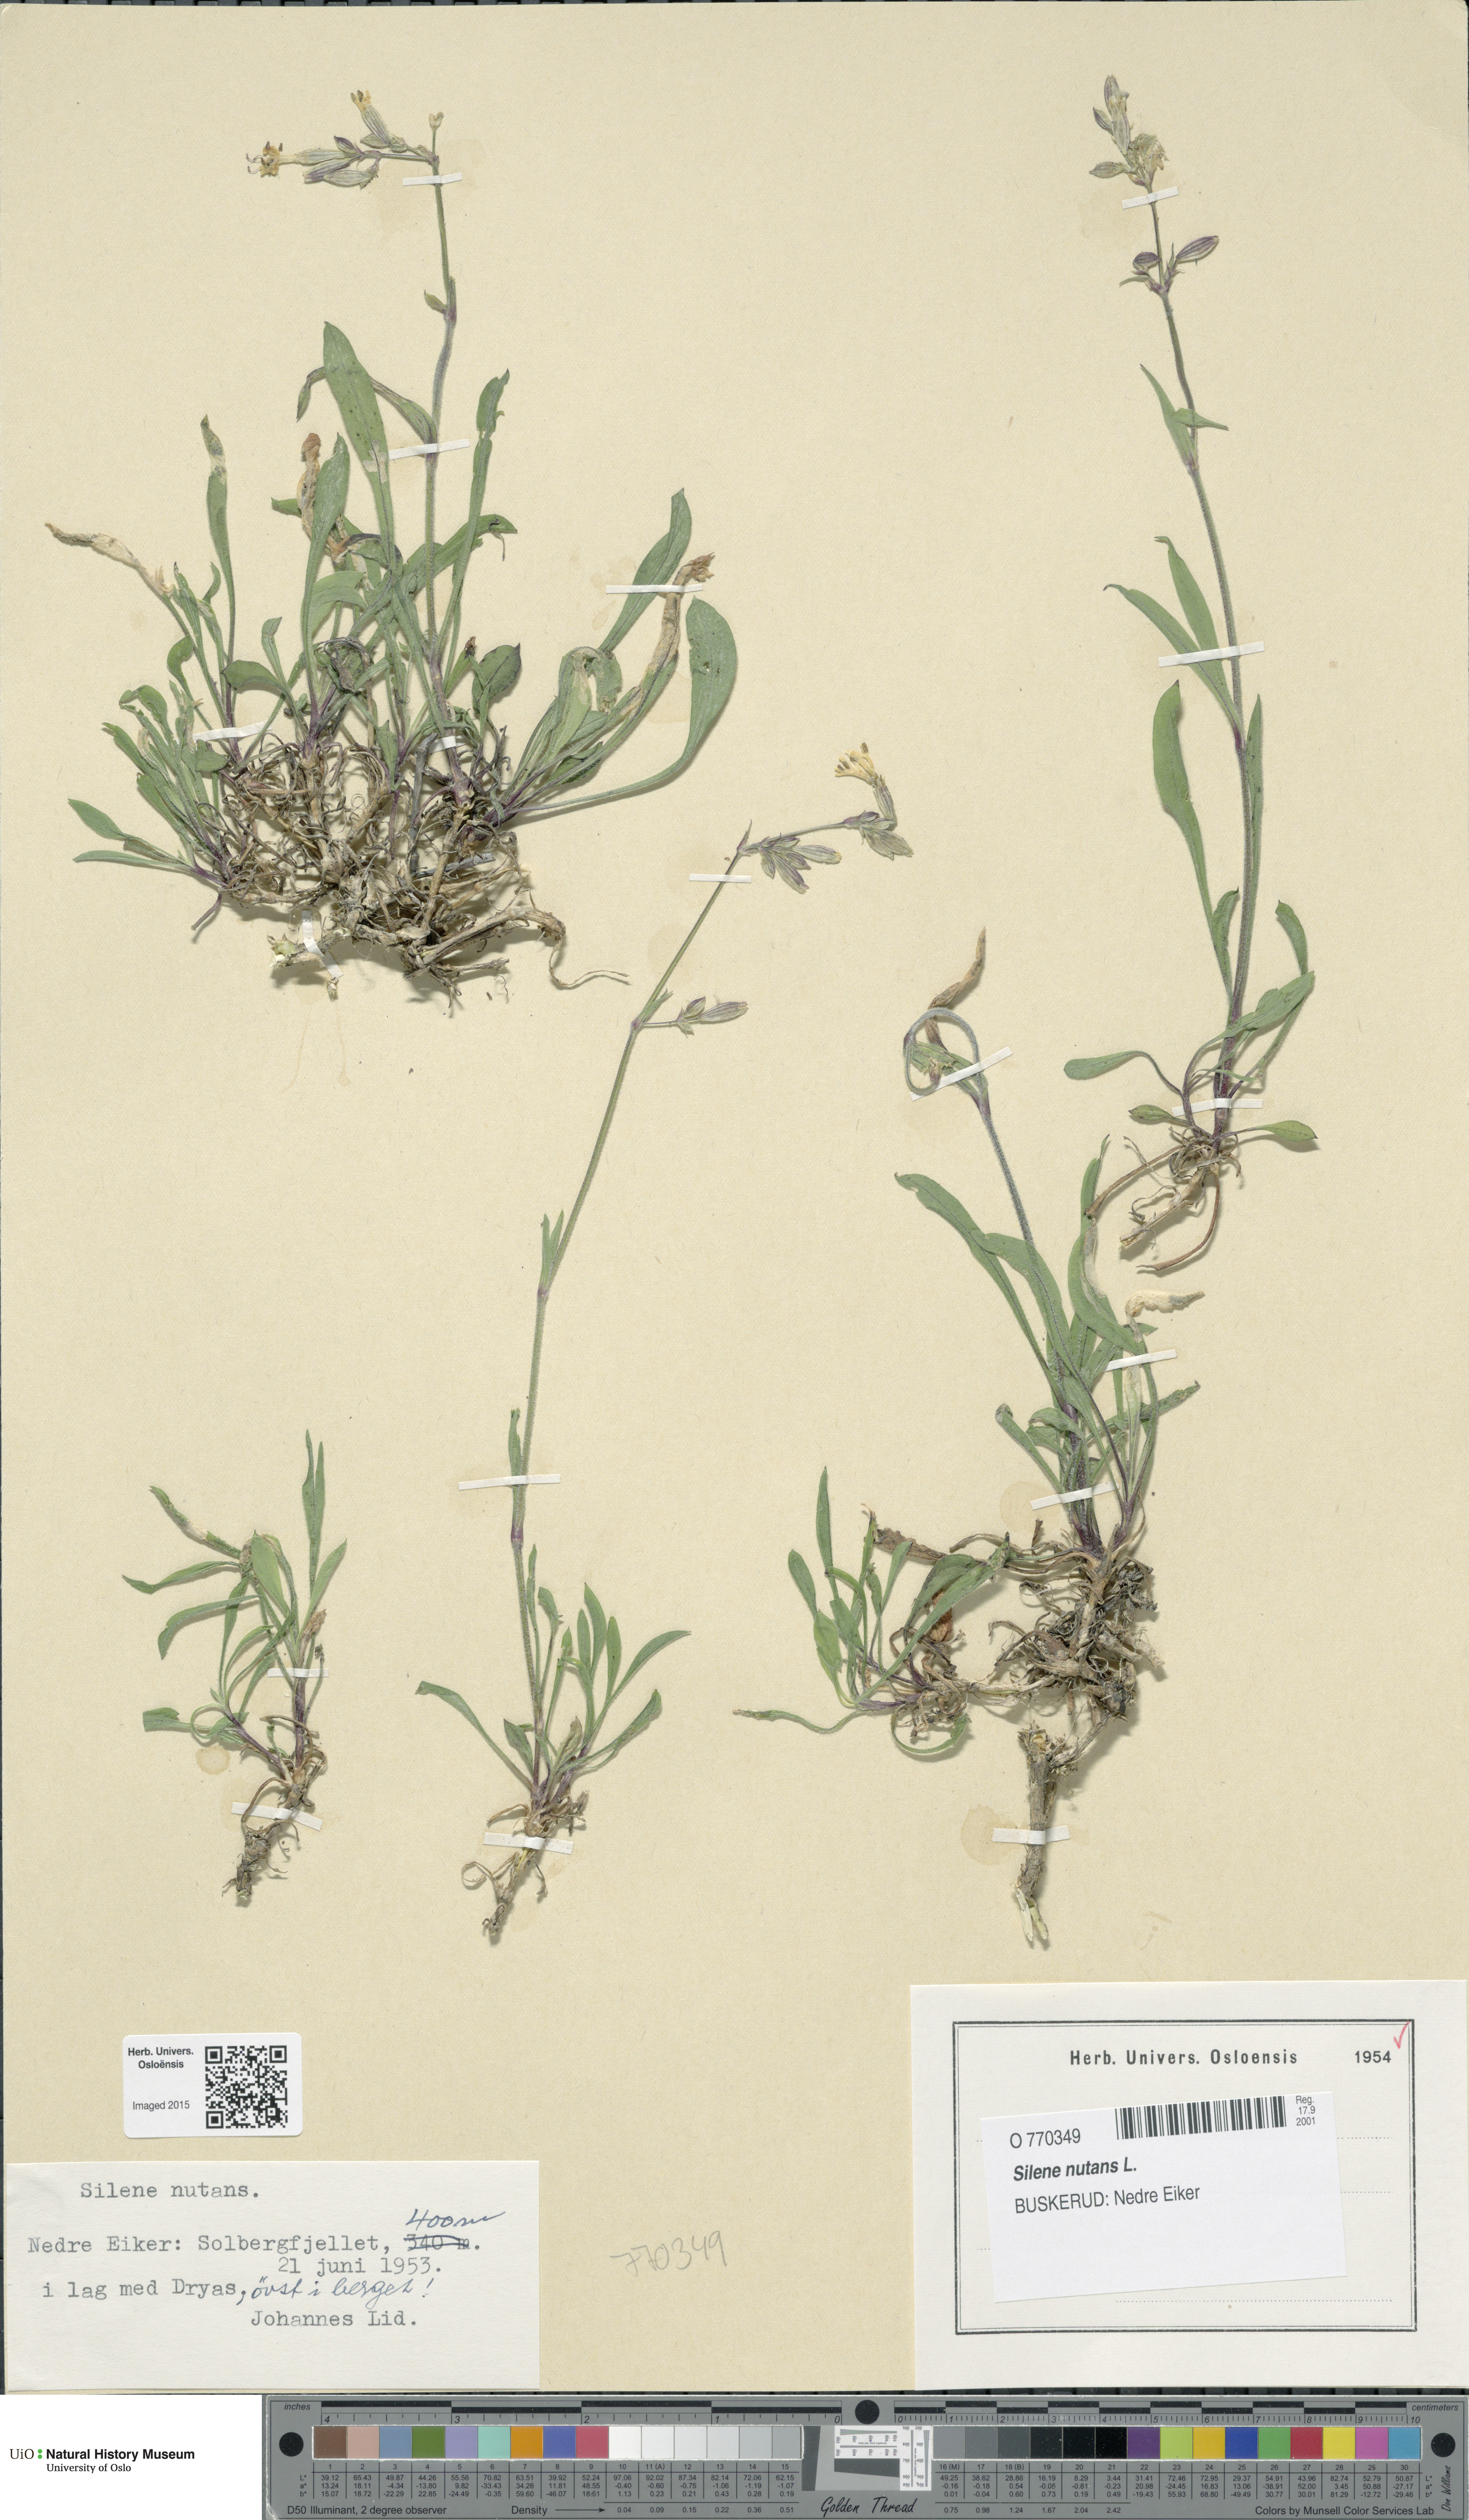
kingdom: Plantae
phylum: Tracheophyta
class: Magnoliopsida
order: Caryophyllales
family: Caryophyllaceae
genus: Silene
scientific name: Silene nutans
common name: Nottingham catchfly
